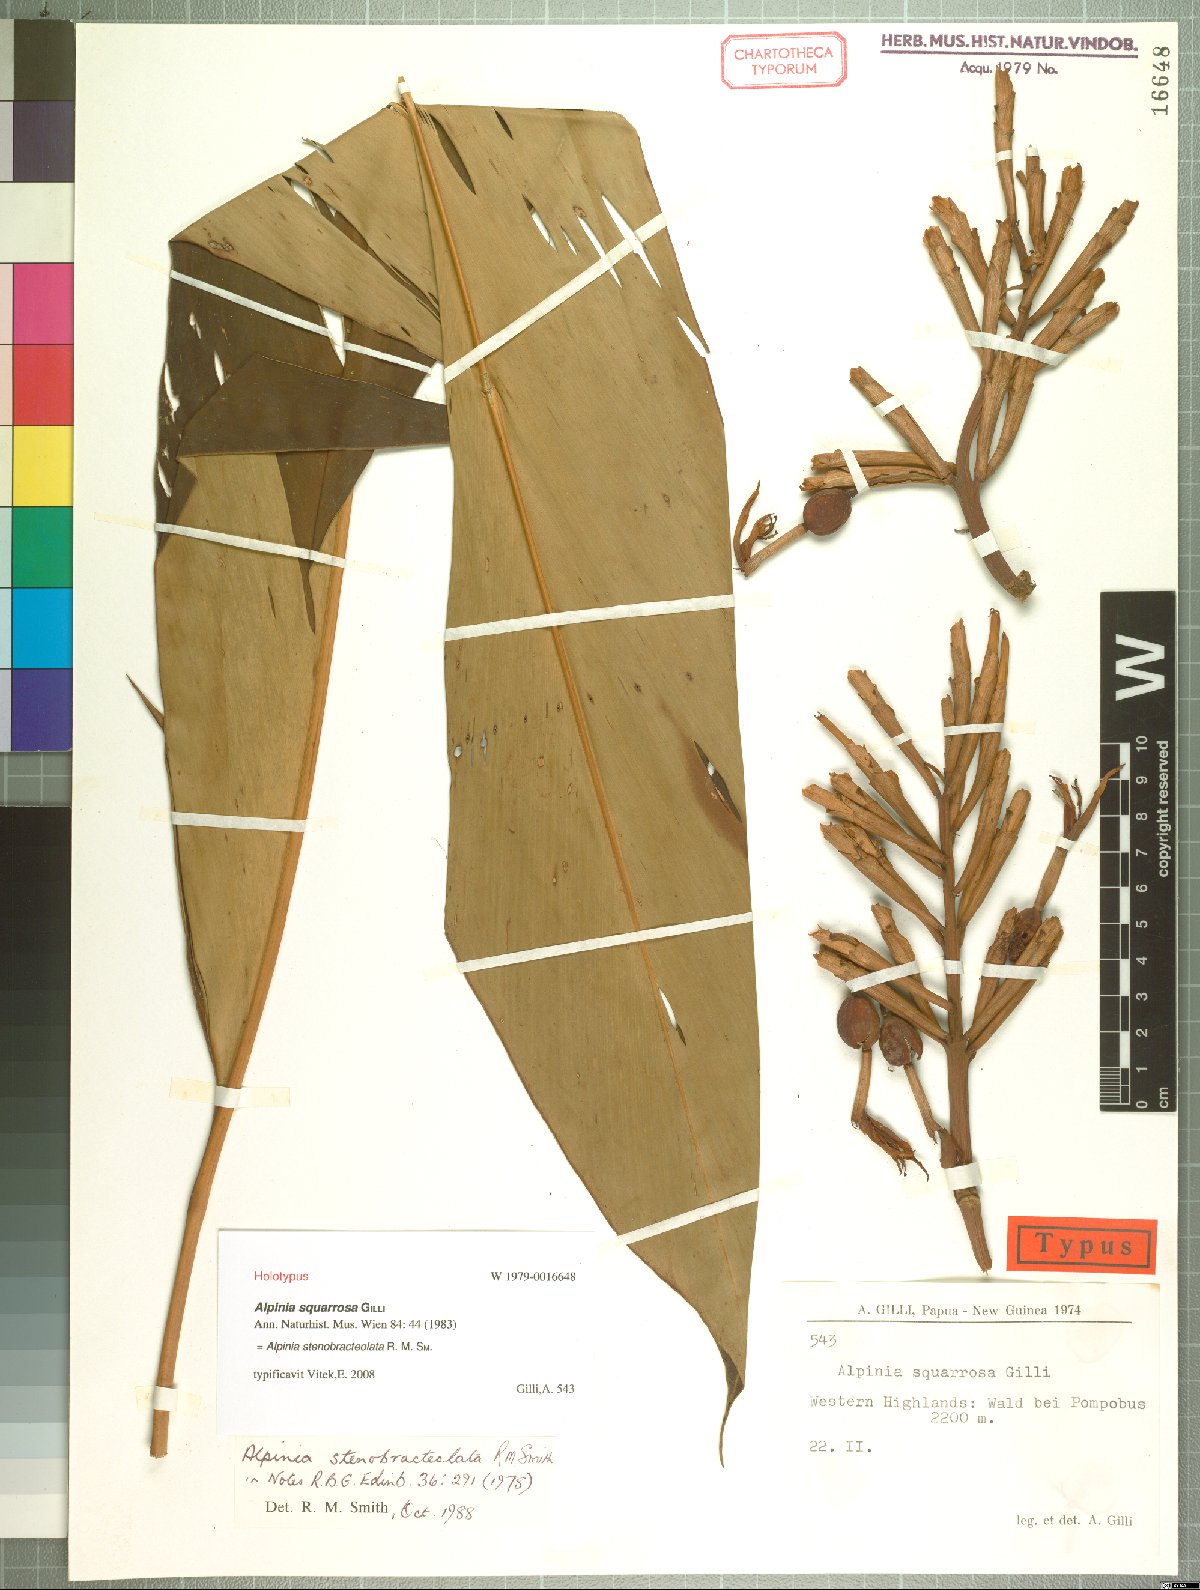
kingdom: Plantae
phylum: Tracheophyta
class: Liliopsida
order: Zingiberales
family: Zingiberaceae
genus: Alpinia
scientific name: Alpinia stenobracteolata
